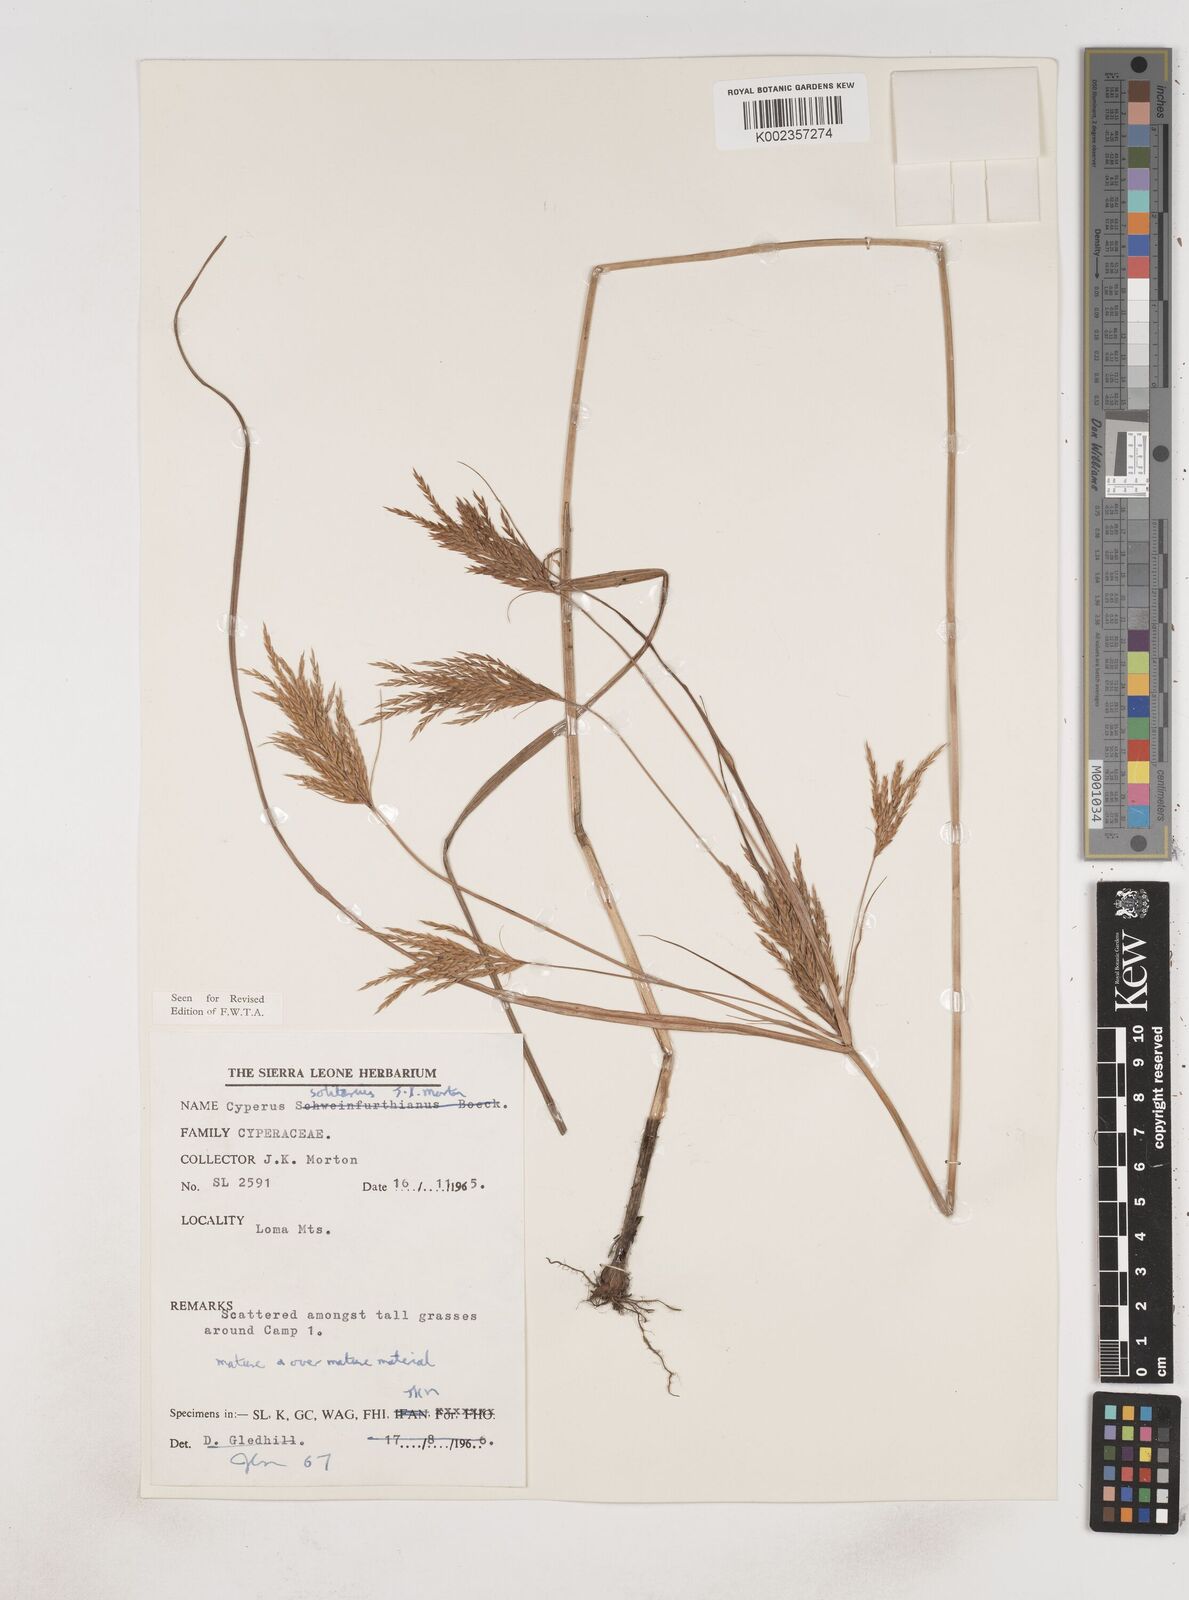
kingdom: Plantae
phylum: Tracheophyta
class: Liliopsida
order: Poales
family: Cyperaceae
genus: Cyperus
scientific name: Cyperus
